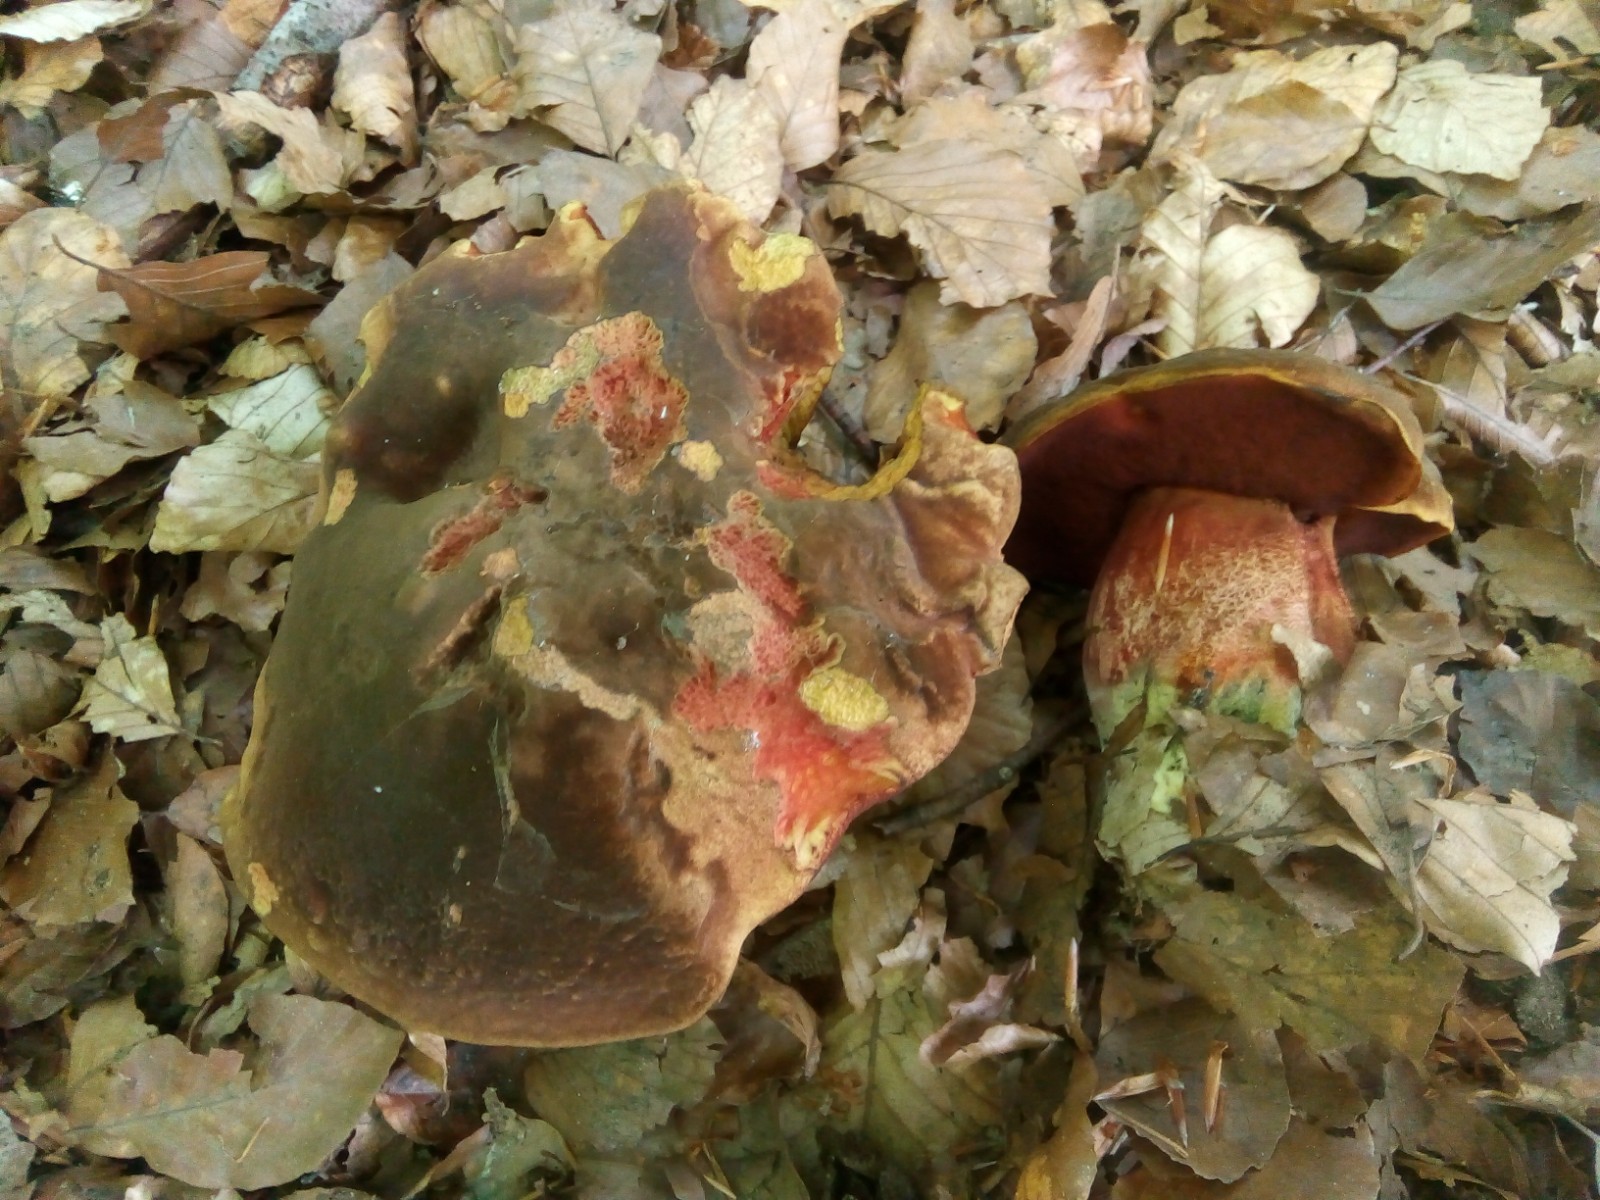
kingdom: Fungi
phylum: Basidiomycota
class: Agaricomycetes
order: Boletales
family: Boletaceae
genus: Neoboletus
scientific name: Neoboletus erythropus
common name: punktstokket indigorørhat
